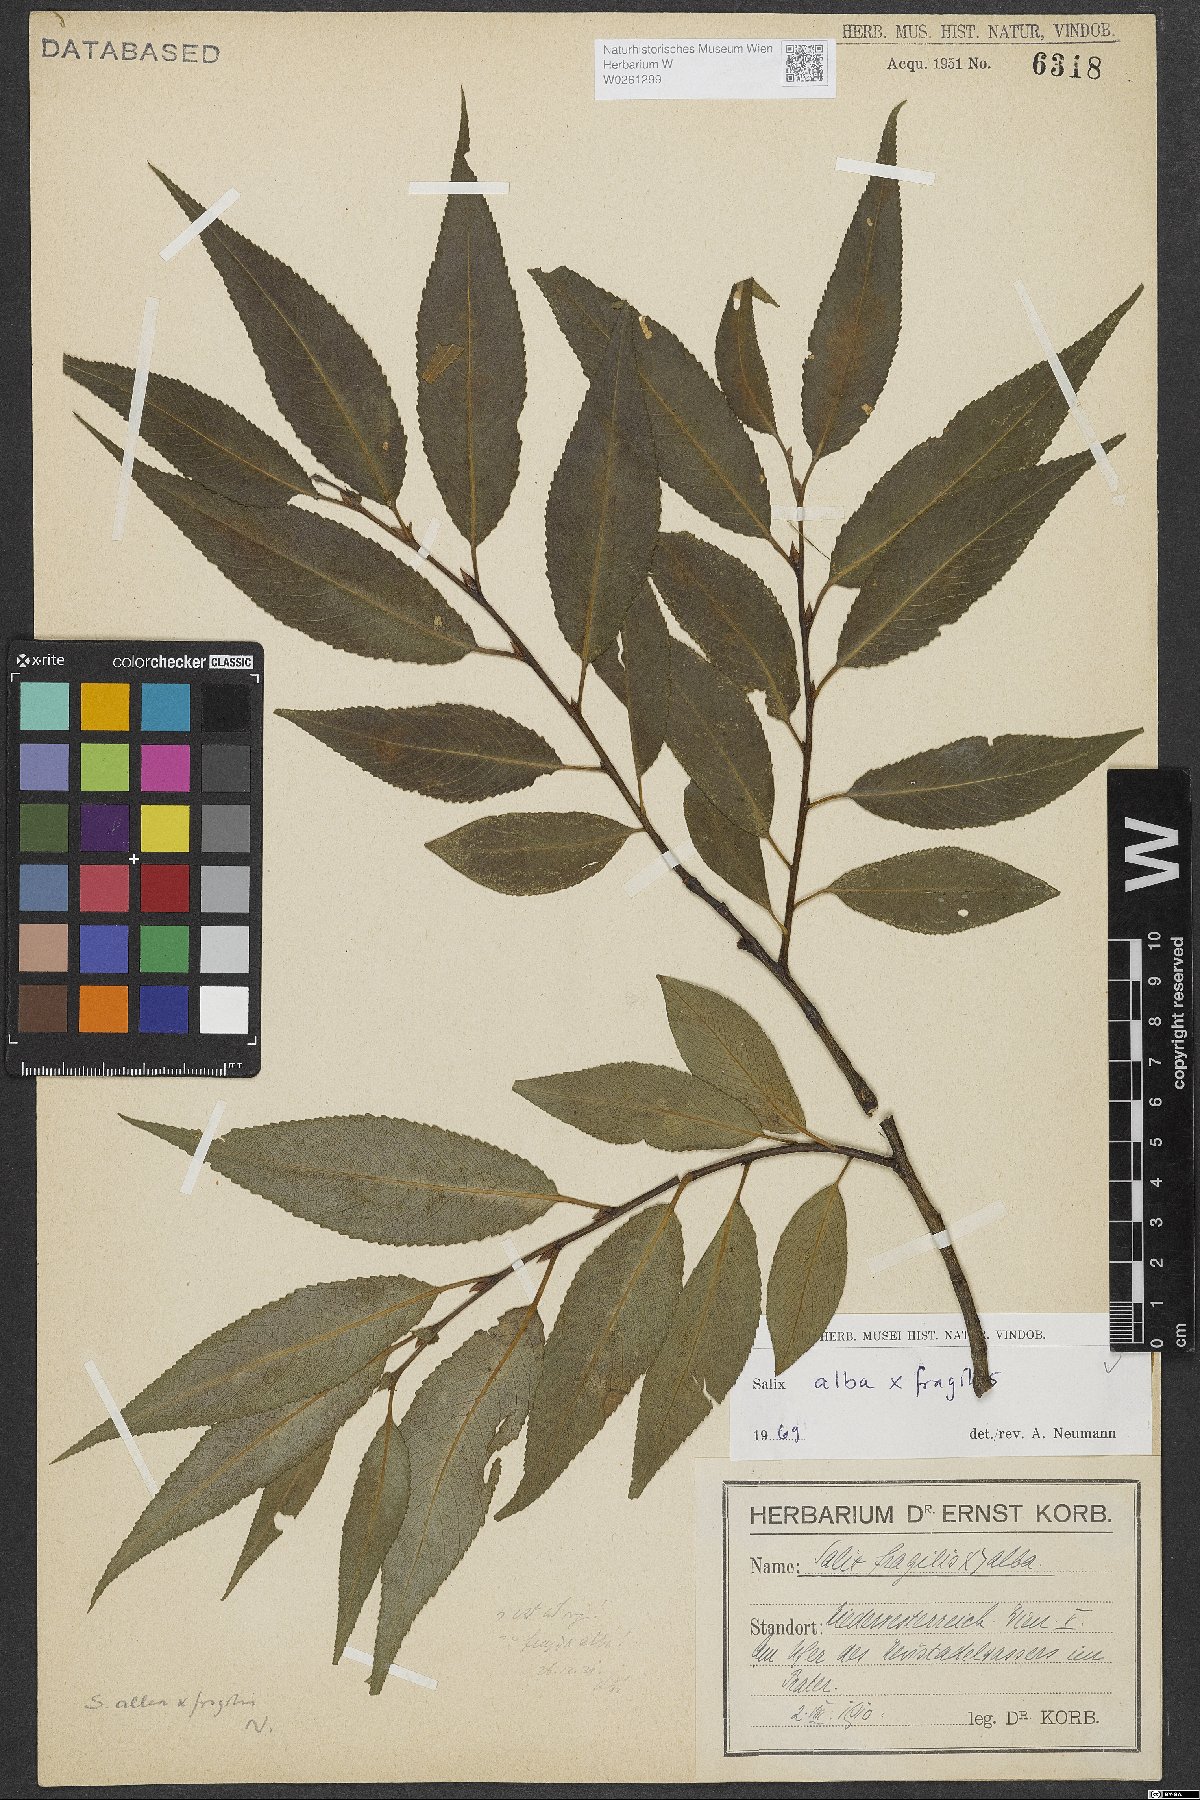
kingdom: Plantae
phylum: Tracheophyta
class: Magnoliopsida
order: Malpighiales
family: Salicaceae
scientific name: Salicaceae
